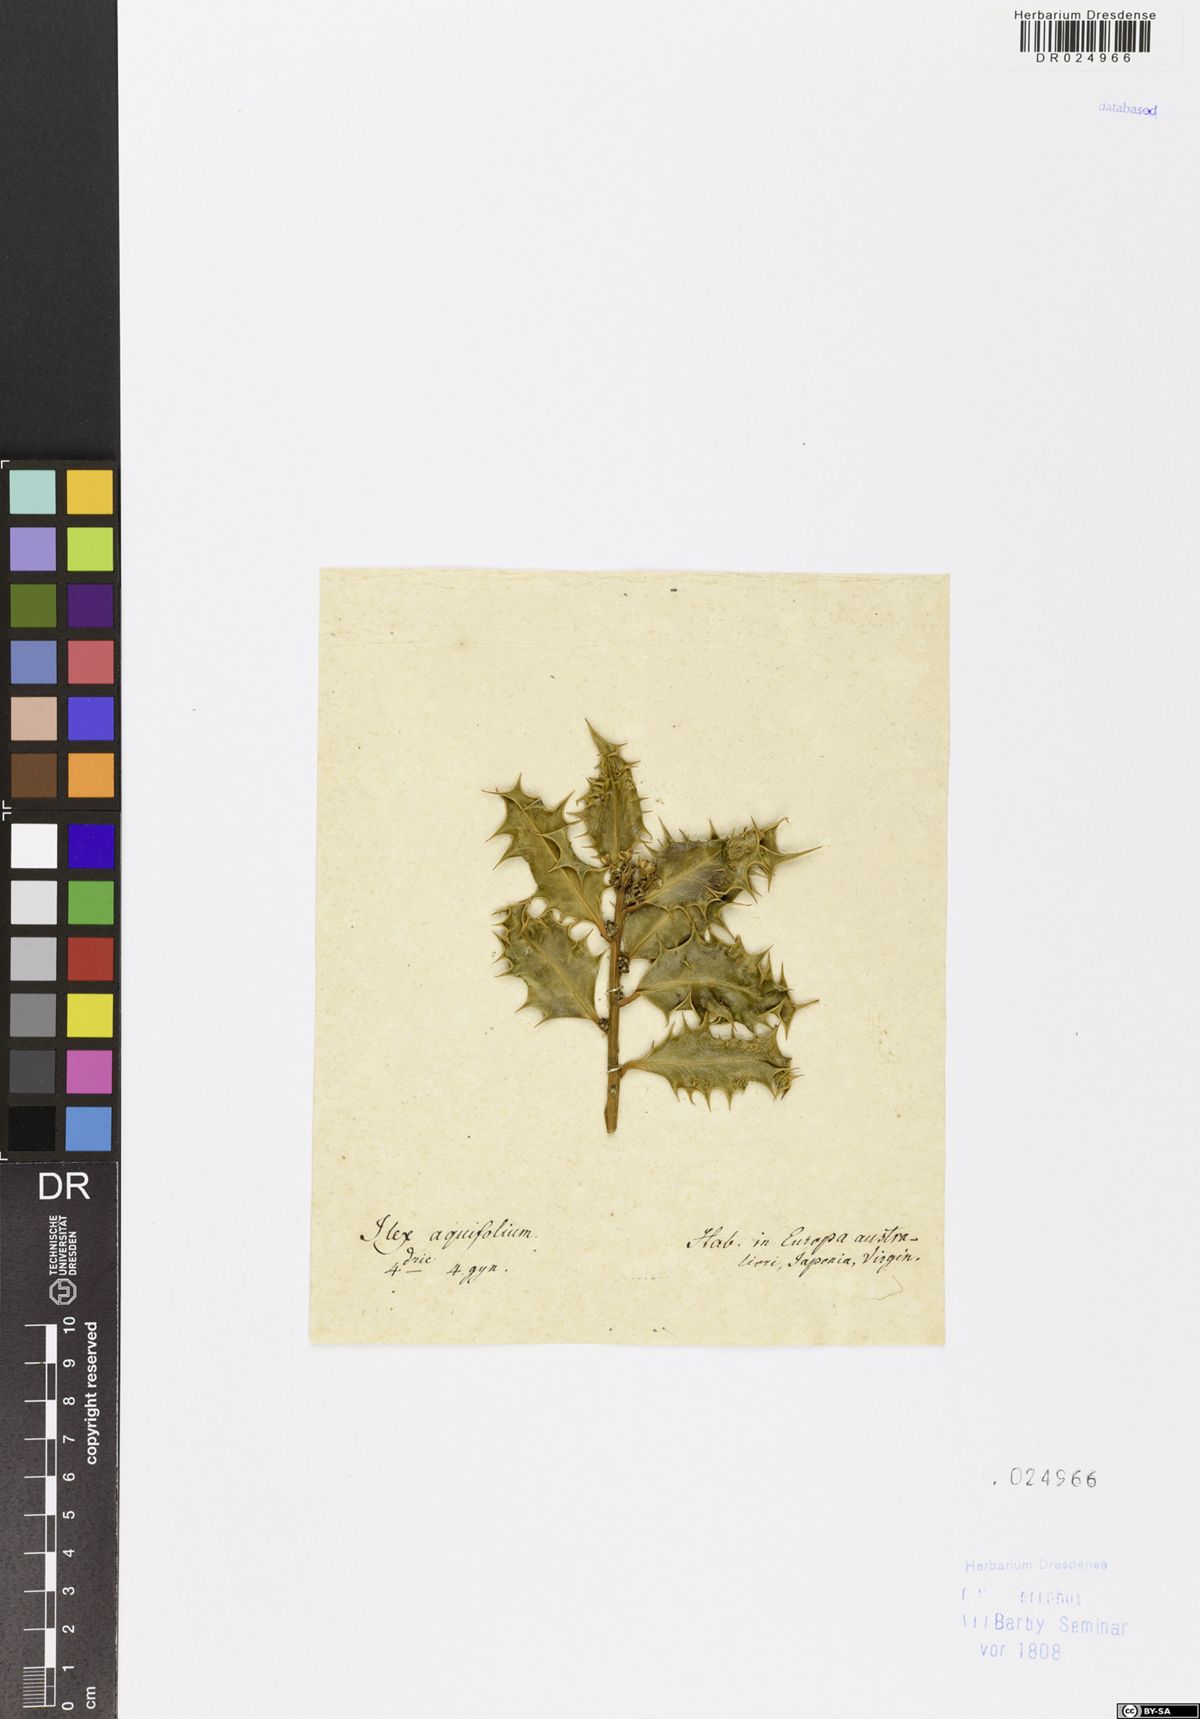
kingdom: Plantae
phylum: Tracheophyta
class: Magnoliopsida
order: Aquifoliales
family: Aquifoliaceae
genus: Ilex
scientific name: Ilex aquifolium
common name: English holly
